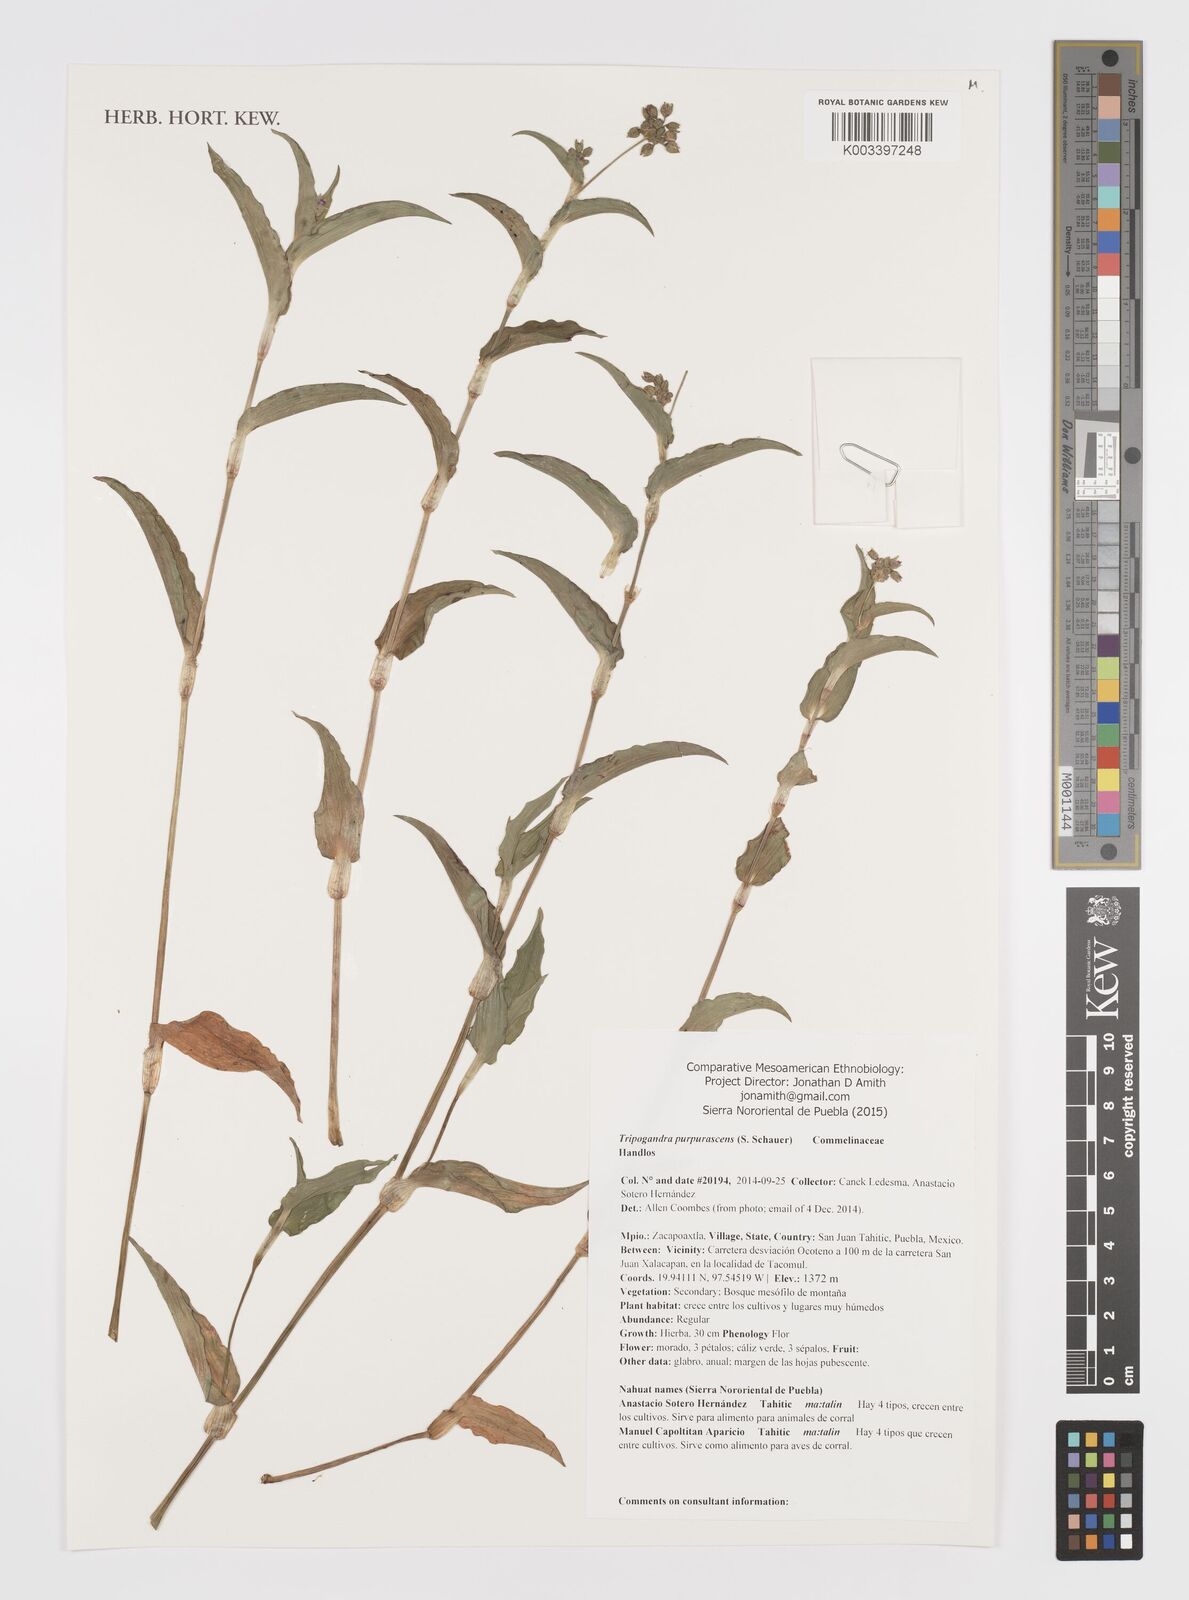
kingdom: Plantae
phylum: Tracheophyta
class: Liliopsida
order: Commelinales
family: Commelinaceae
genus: Callisia
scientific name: Callisia purpurascens
